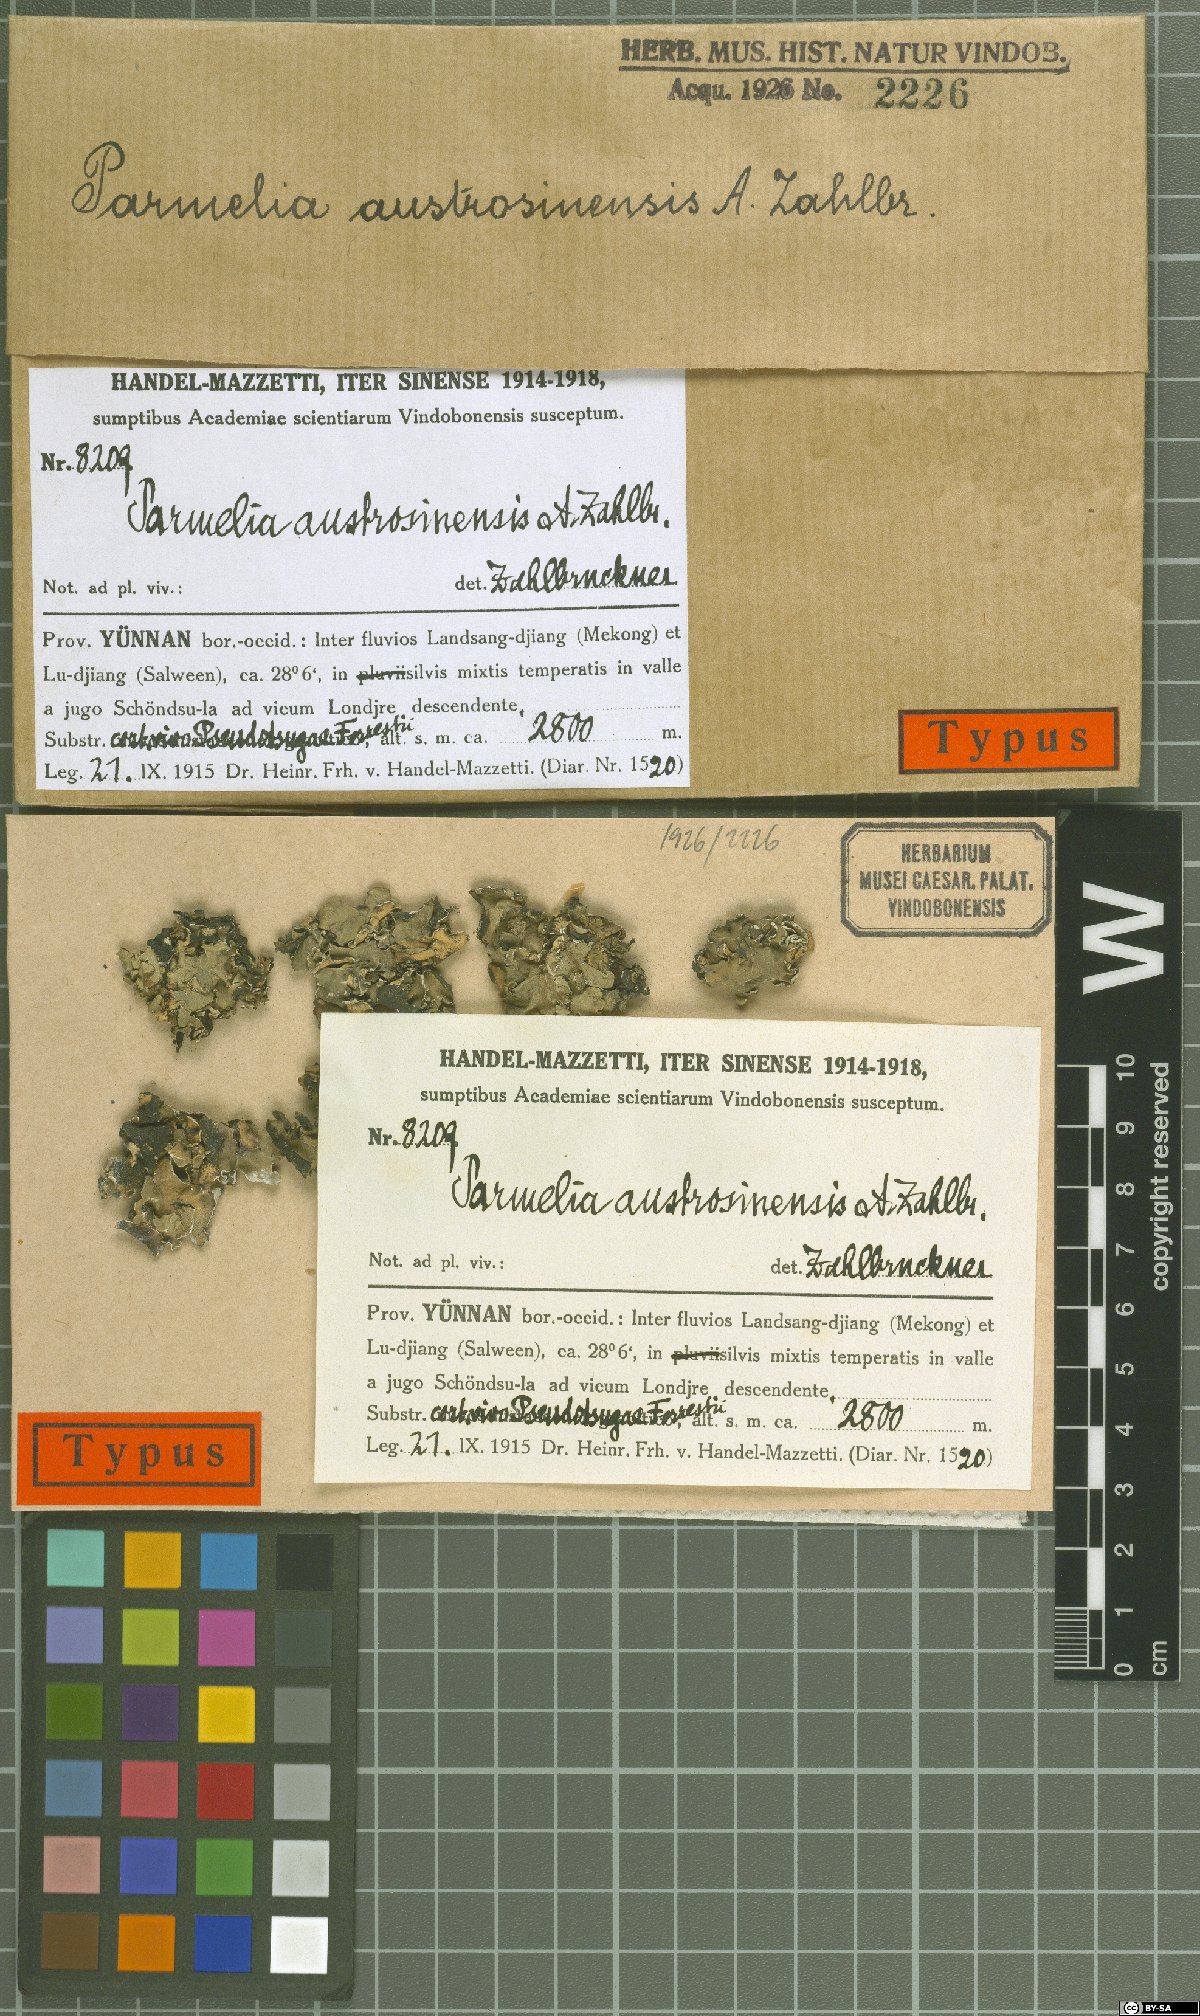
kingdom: Fungi
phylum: Ascomycota
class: Lecanoromycetes
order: Lecanorales
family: Parmeliaceae
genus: Parmotrema
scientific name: Parmotrema austrosinense
